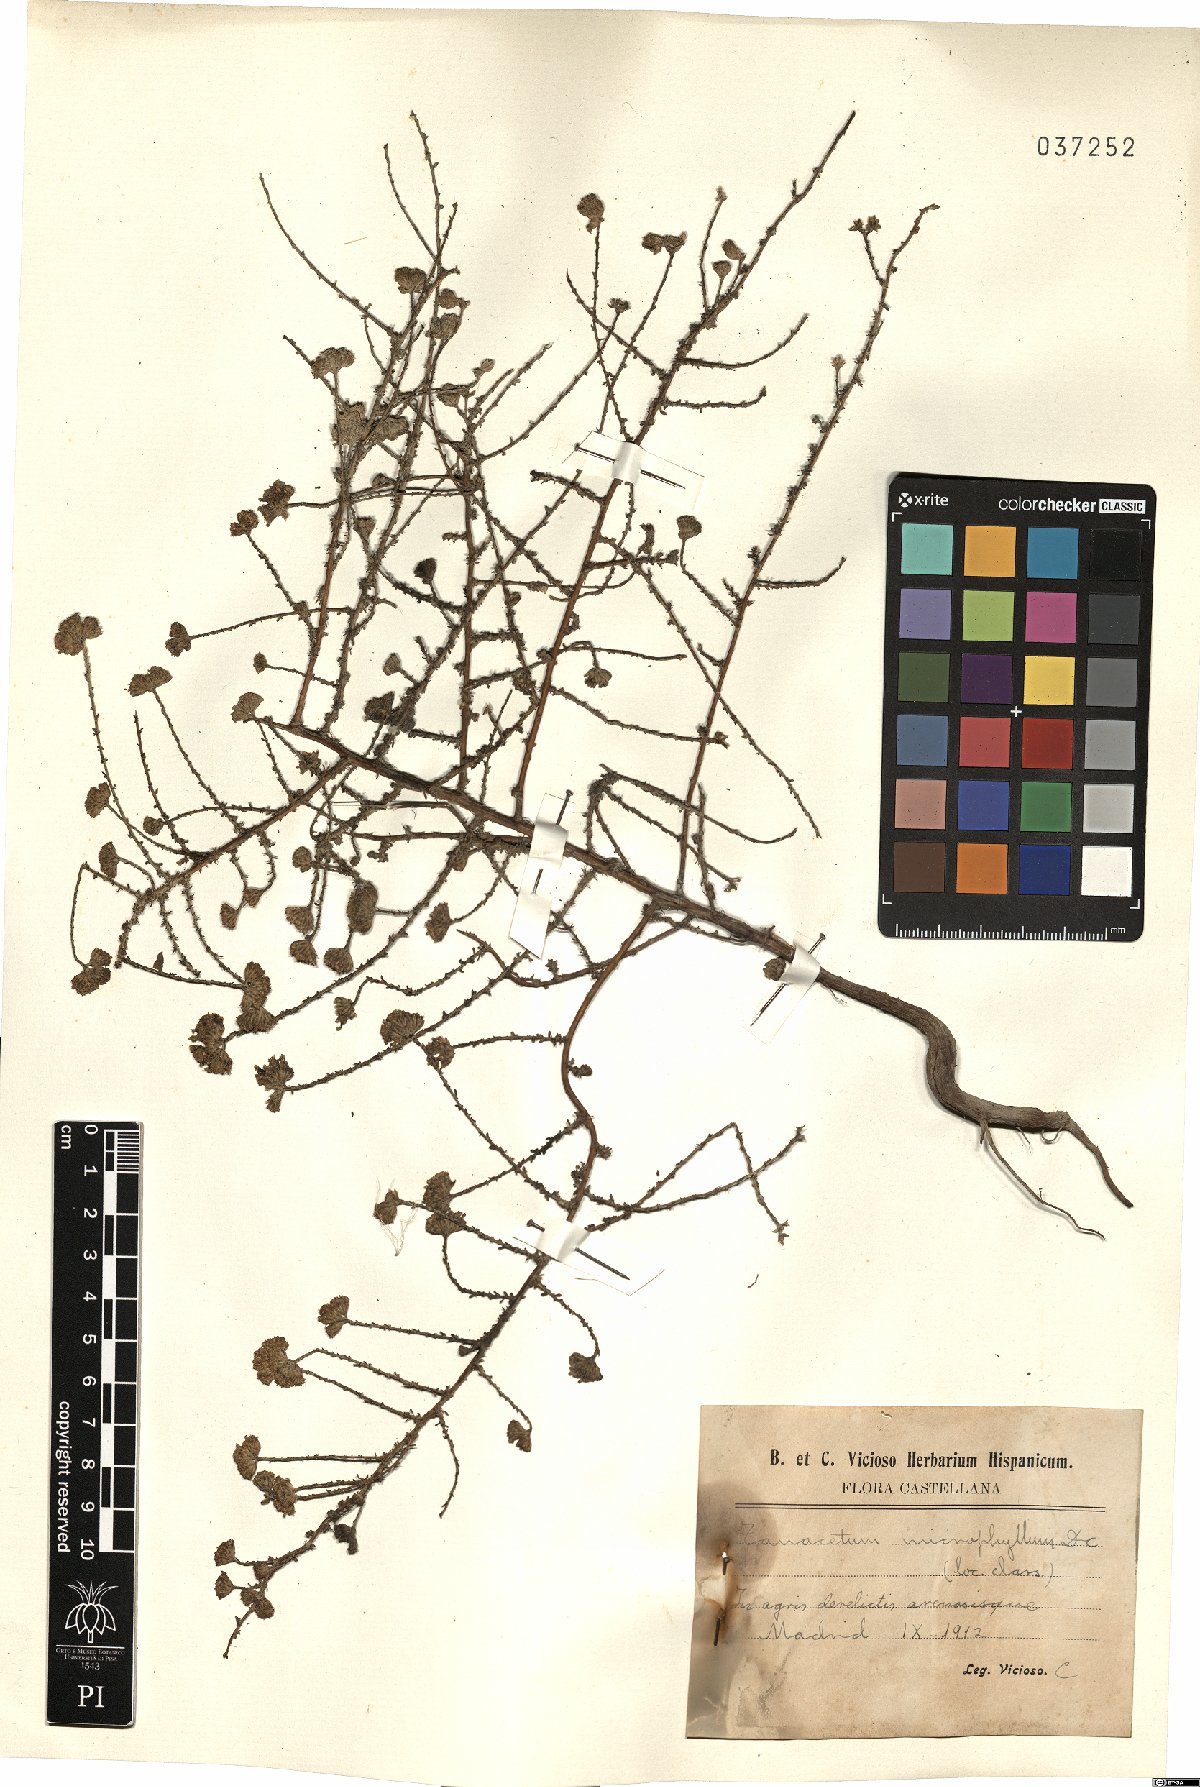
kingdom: Plantae
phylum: Tracheophyta
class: Magnoliopsida
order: Asterales
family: Asteraceae
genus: Vogtia
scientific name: Vogtia microphylla
